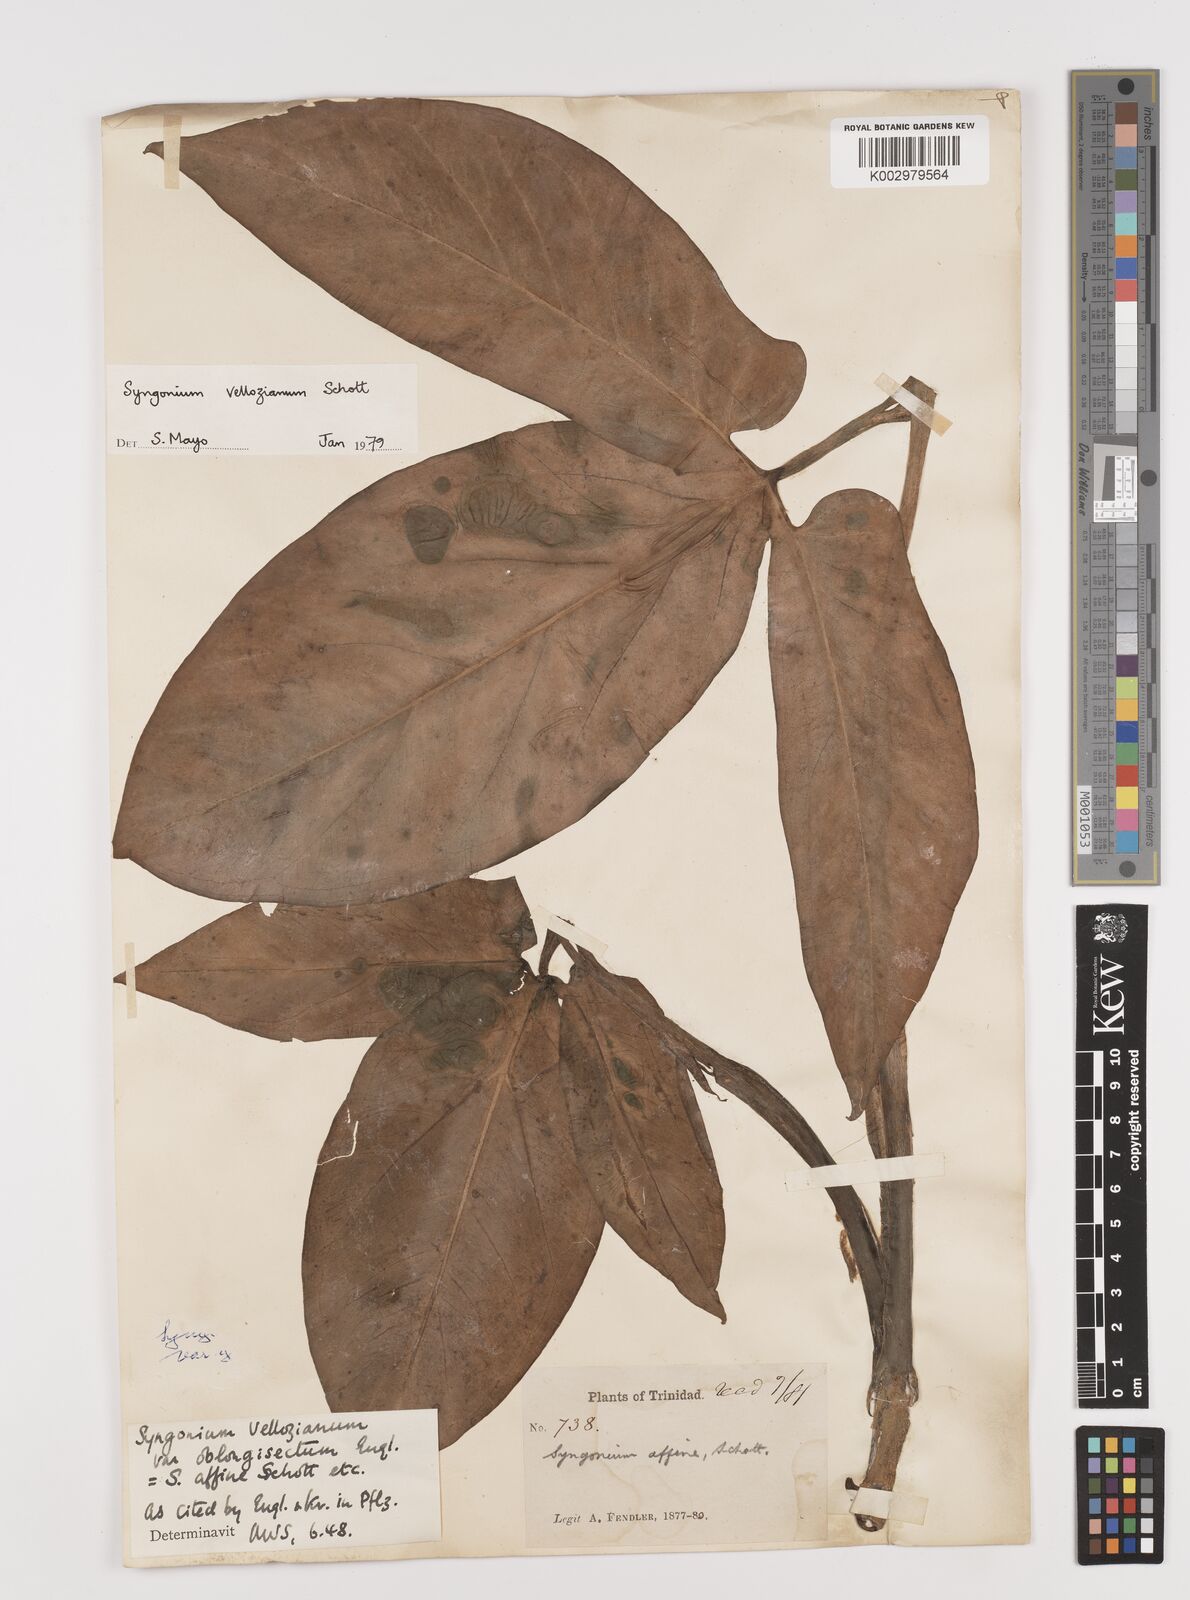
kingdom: Plantae
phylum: Tracheophyta
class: Liliopsida
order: Alismatales
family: Araceae
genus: Syngonium
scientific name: Syngonium podophyllum
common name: American evergreen
